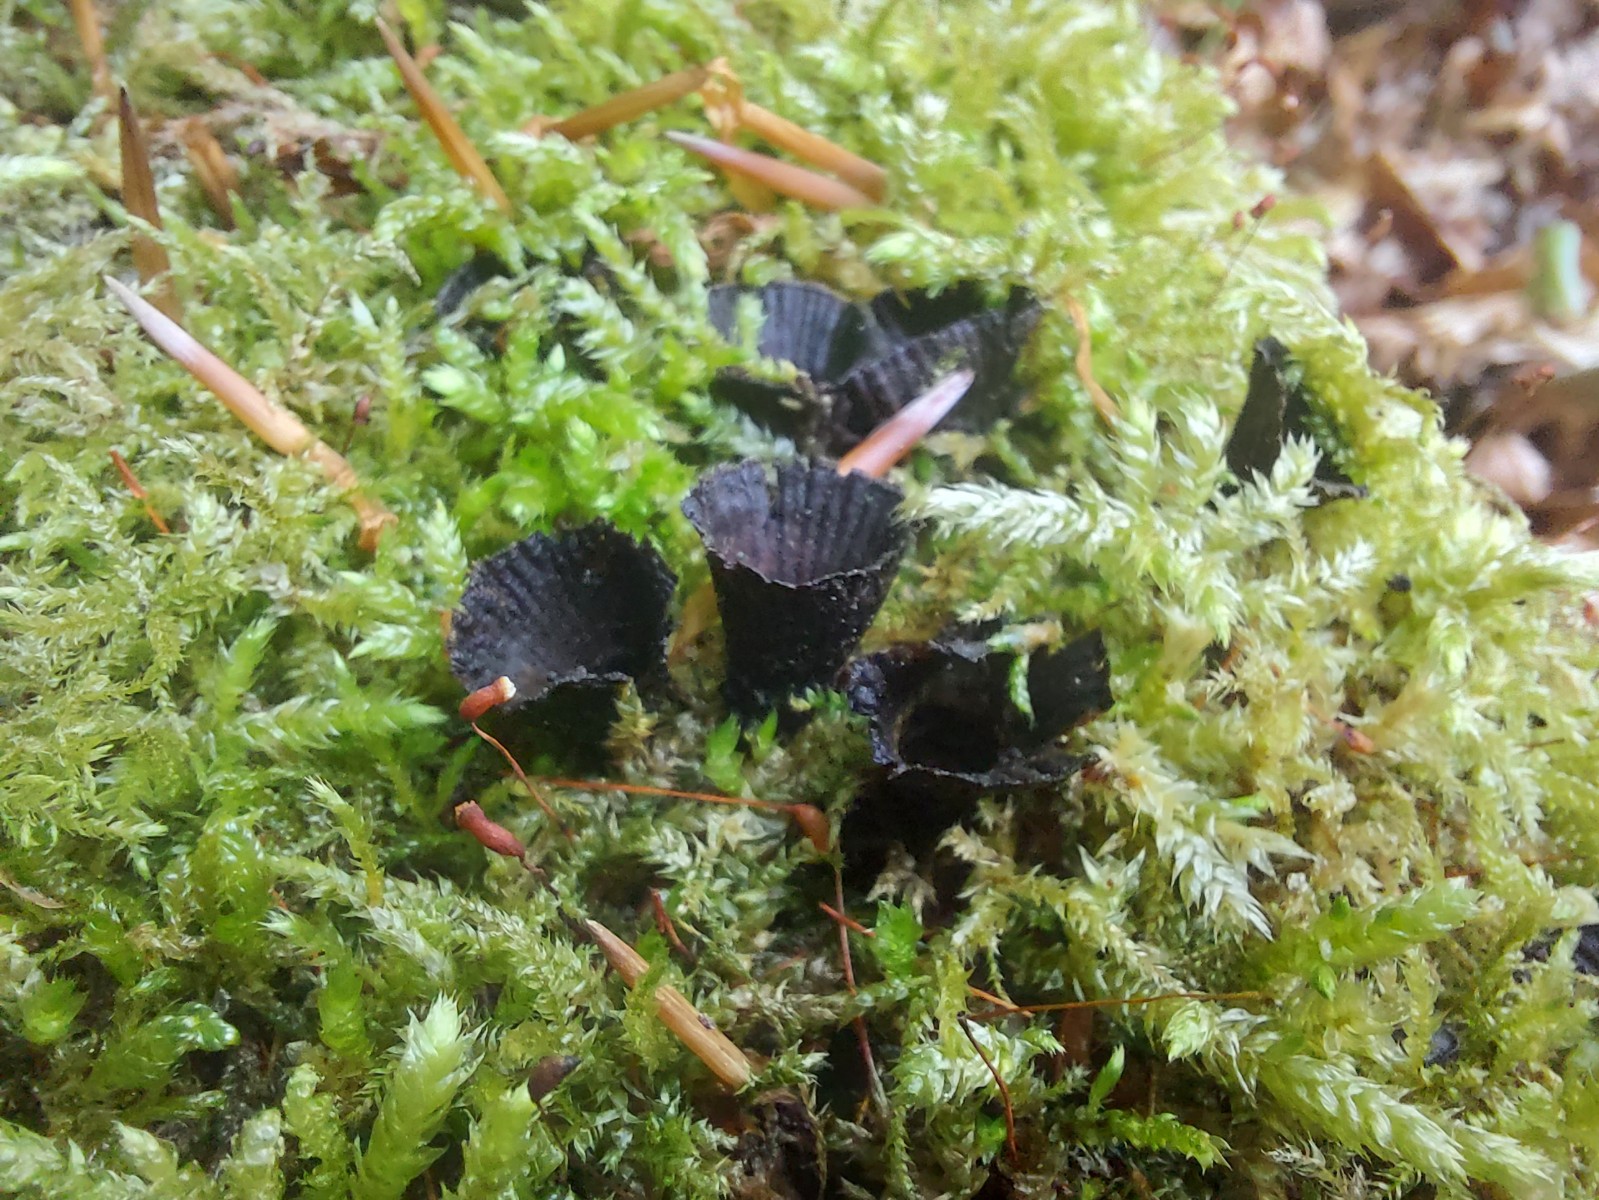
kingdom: Fungi
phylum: Basidiomycota
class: Agaricomycetes
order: Agaricales
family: Agaricaceae
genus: Cyathus
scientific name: Cyathus striatus
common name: stribet redesvamp
